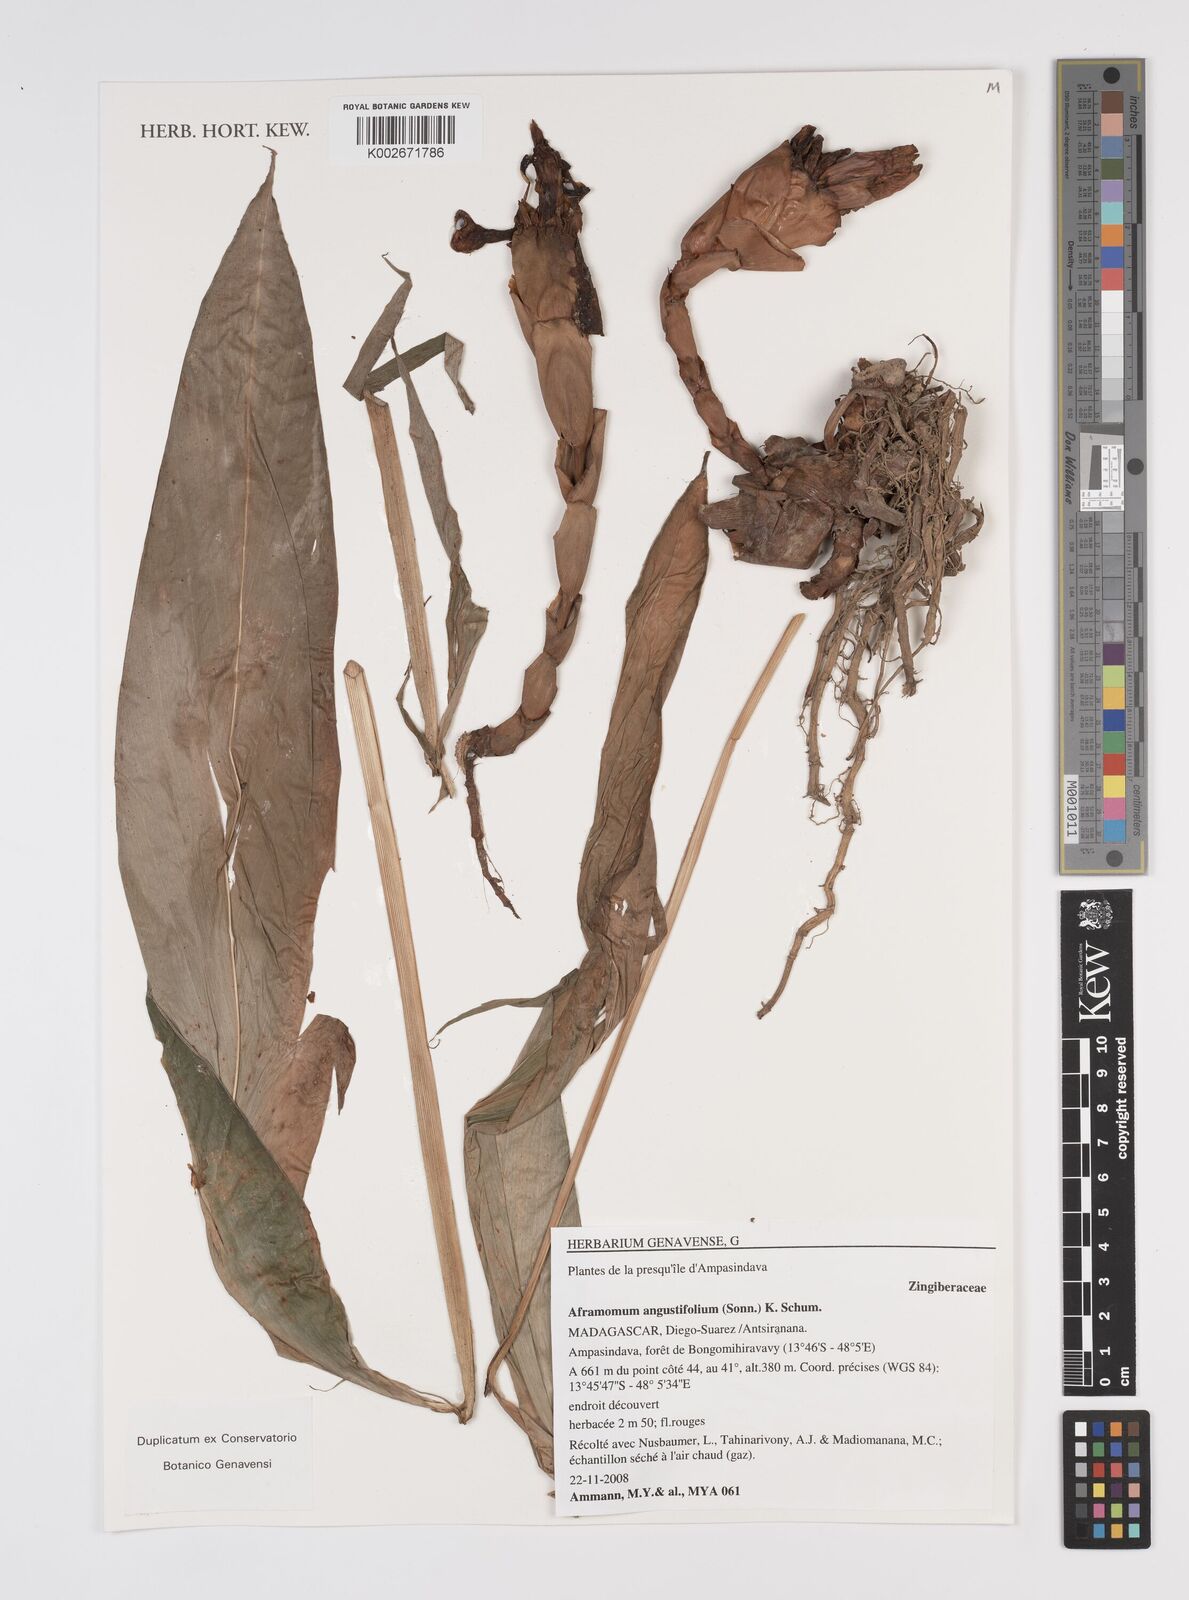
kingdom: Plantae
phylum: Tracheophyta
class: Liliopsida
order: Zingiberales
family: Zingiberaceae
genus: Aframomum
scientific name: Aframomum angustifolium
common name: Guinea grains
